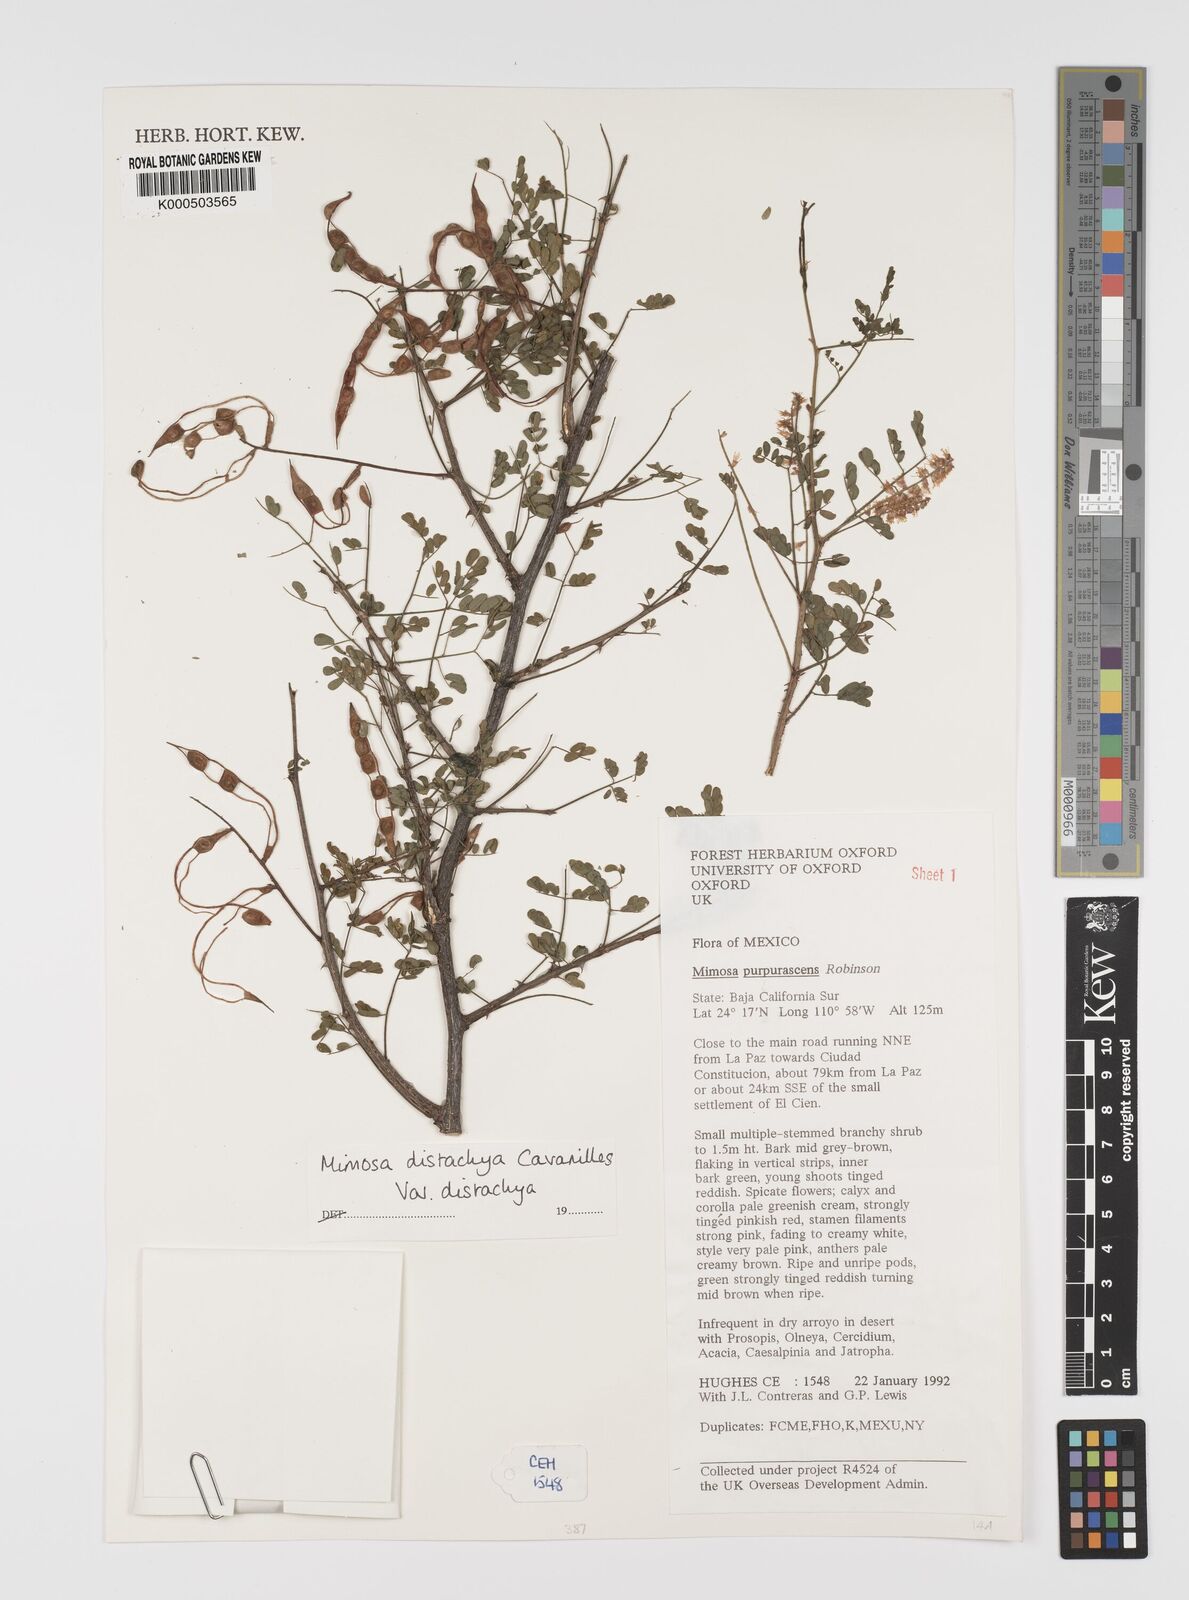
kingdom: Plantae
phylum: Tracheophyta
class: Magnoliopsida
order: Fabales
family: Fabaceae
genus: Mimosa
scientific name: Mimosa distachya
